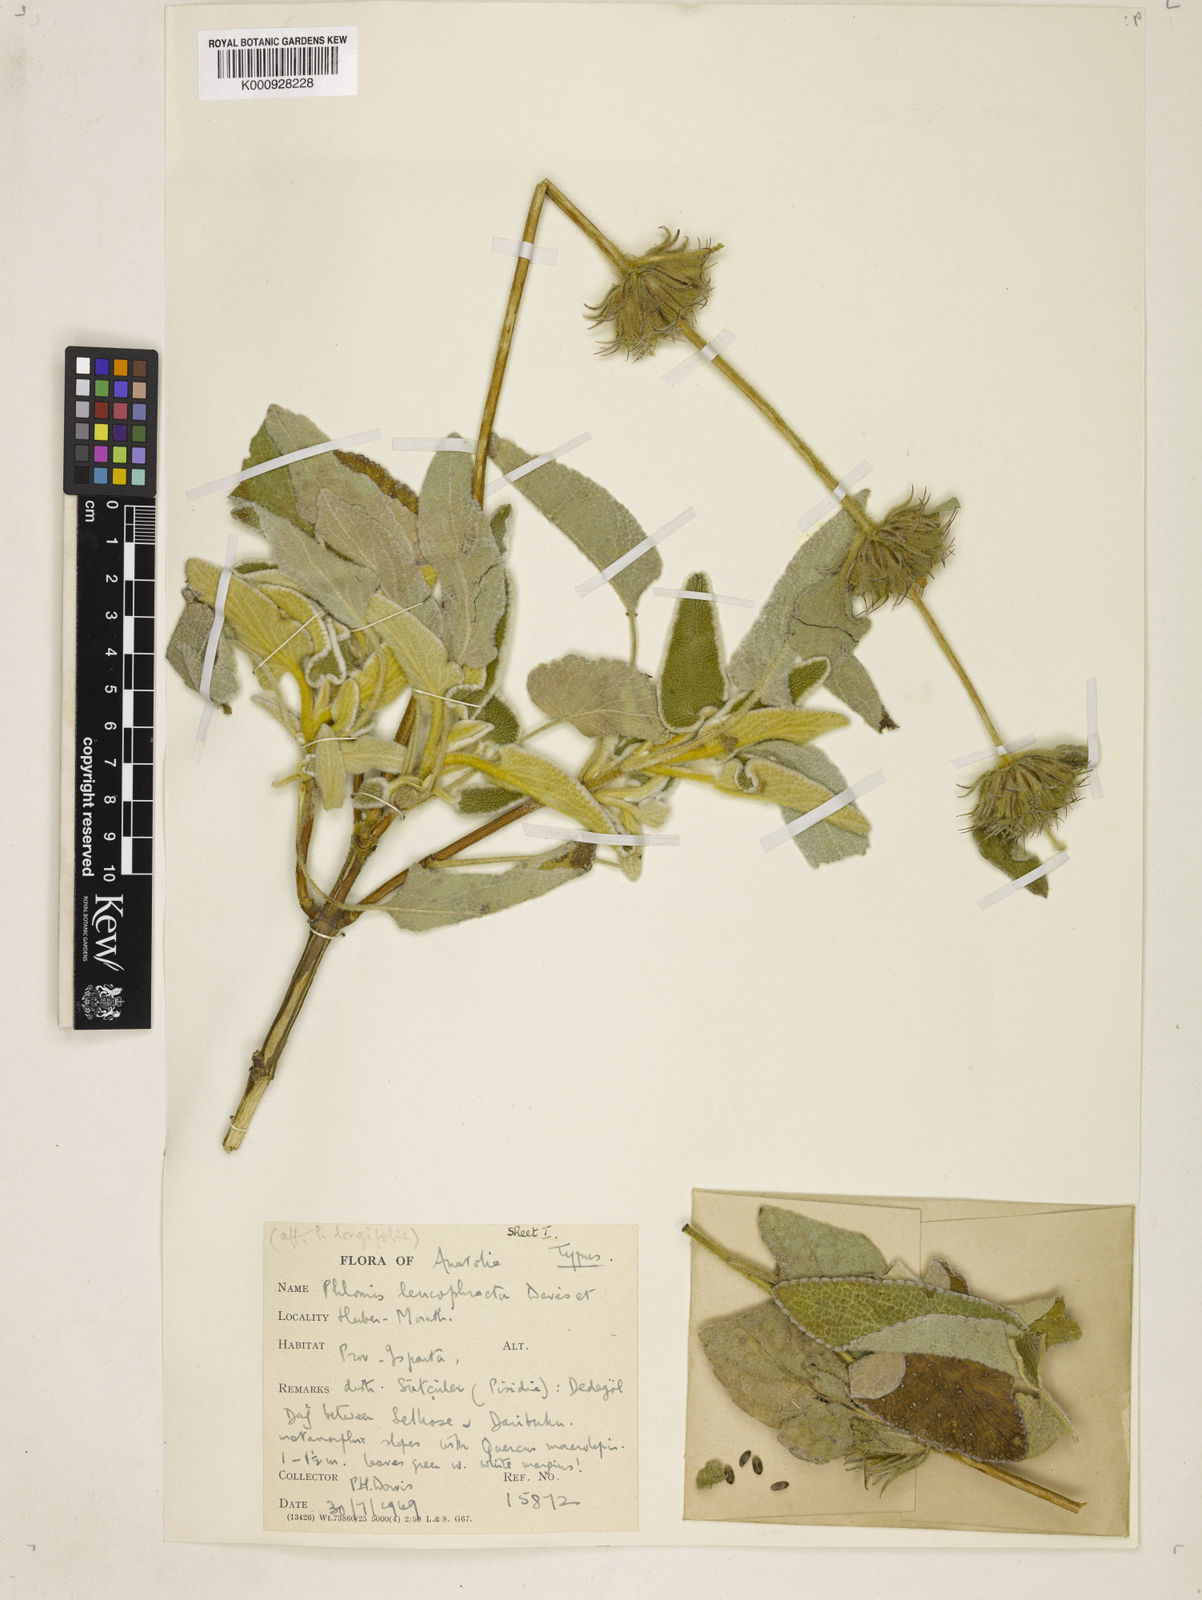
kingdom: Plantae
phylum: Tracheophyta
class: Magnoliopsida
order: Lamiales
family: Lamiaceae
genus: Phlomis
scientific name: Phlomis leucophracta
